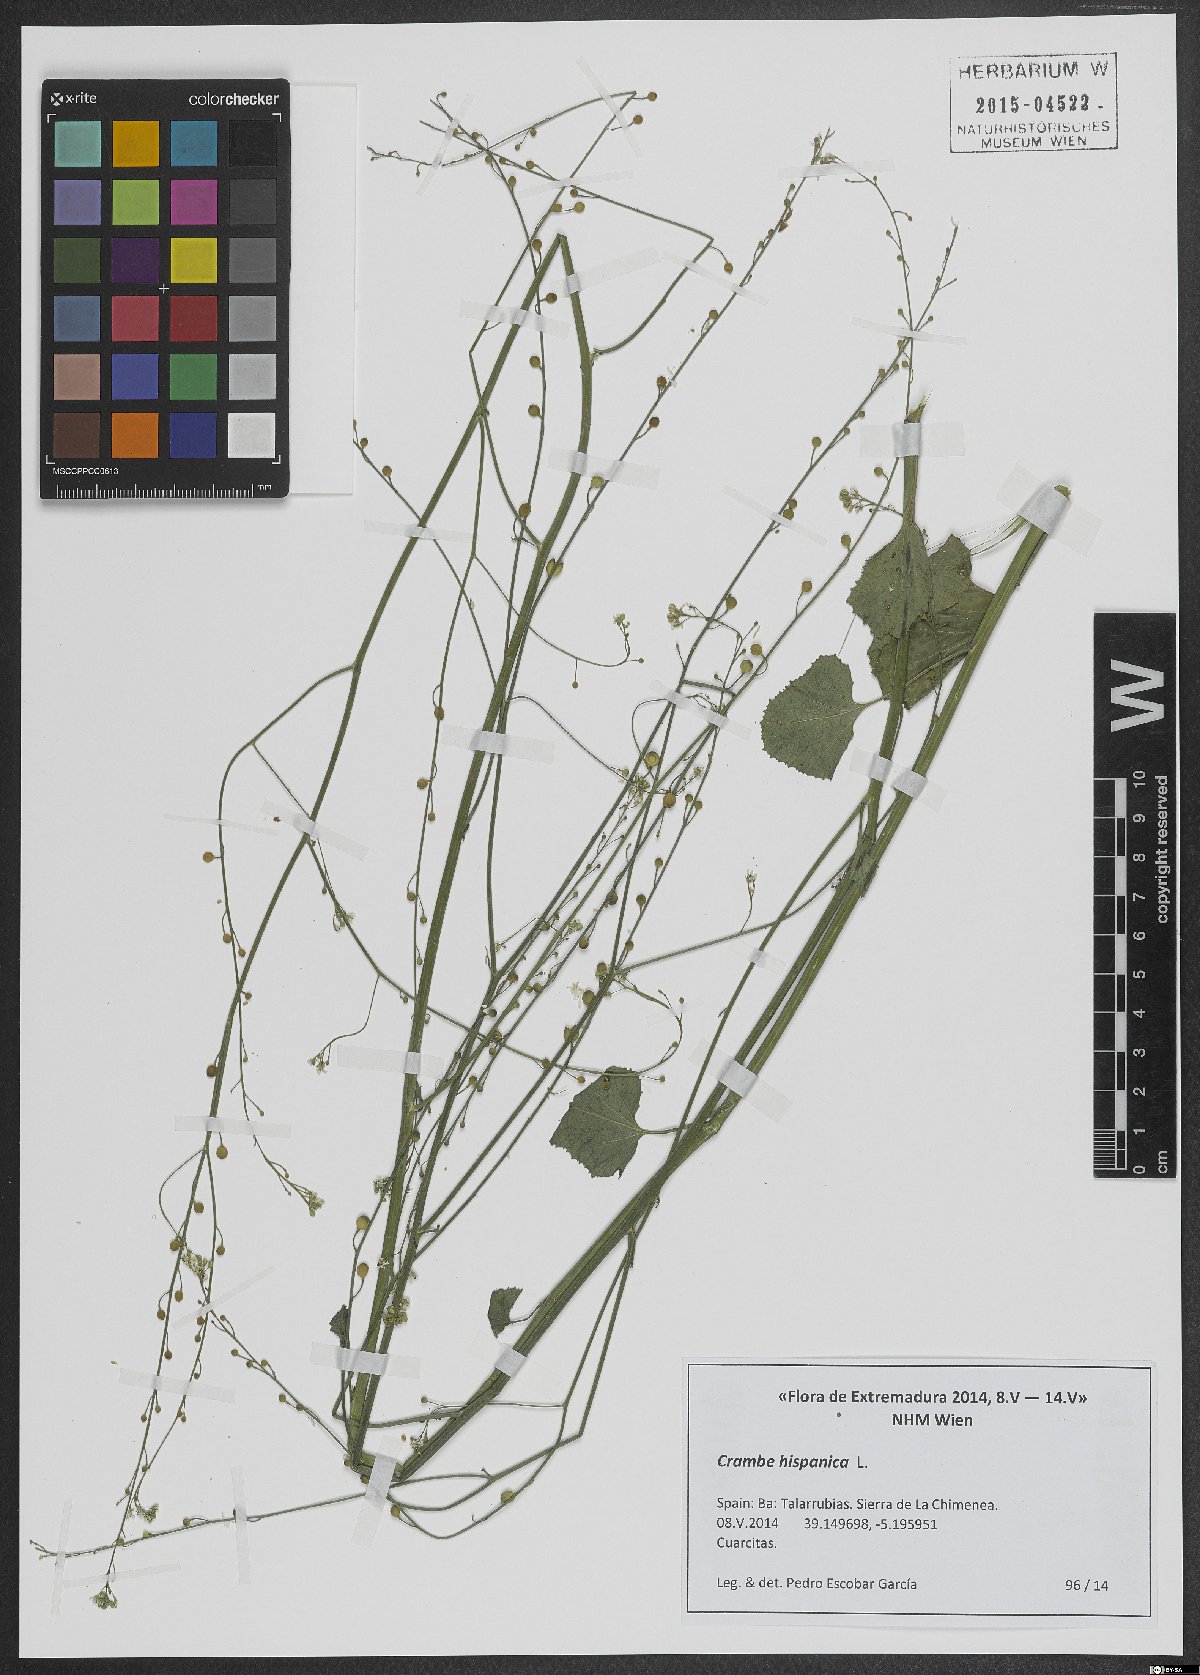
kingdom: Plantae
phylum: Tracheophyta
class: Magnoliopsida
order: Brassicales
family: Brassicaceae
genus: Crambe
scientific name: Crambe hispanica
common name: Abyssinian mustard
